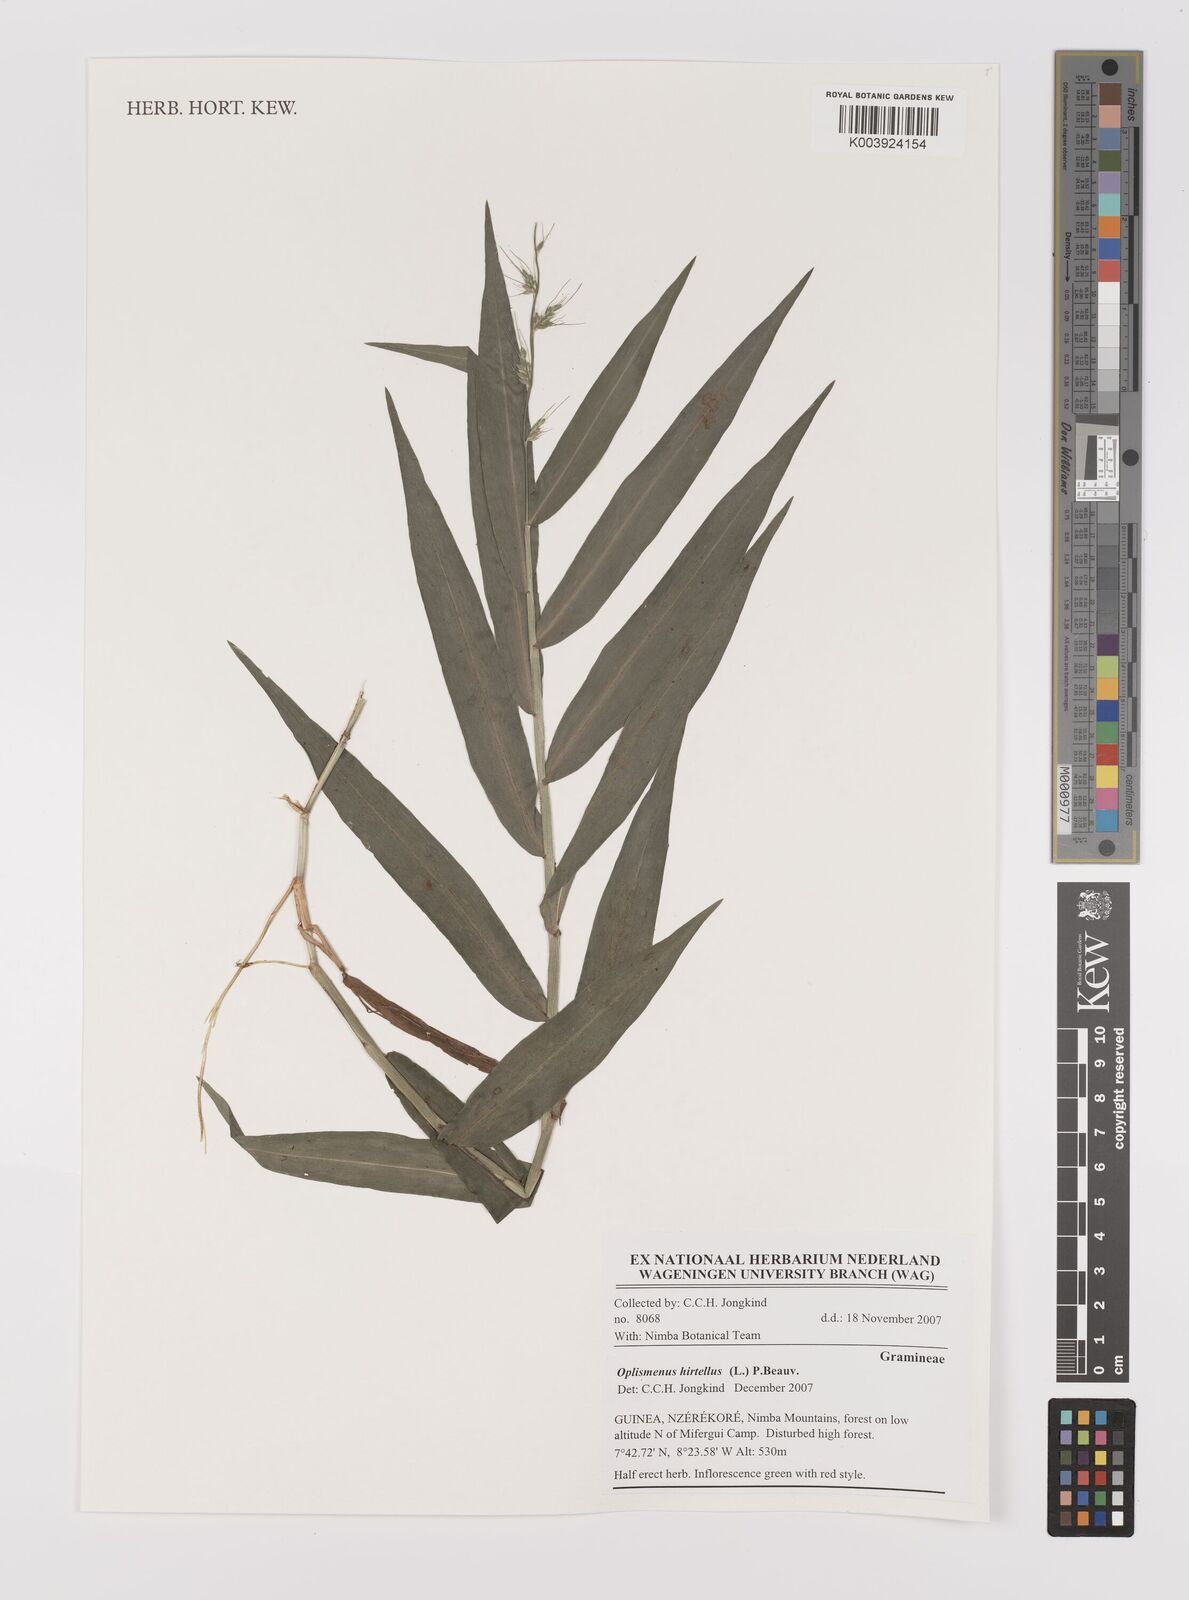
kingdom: Plantae
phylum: Tracheophyta
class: Liliopsida
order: Poales
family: Poaceae
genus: Oplismenus
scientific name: Oplismenus hirtellus
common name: Basketgrass
